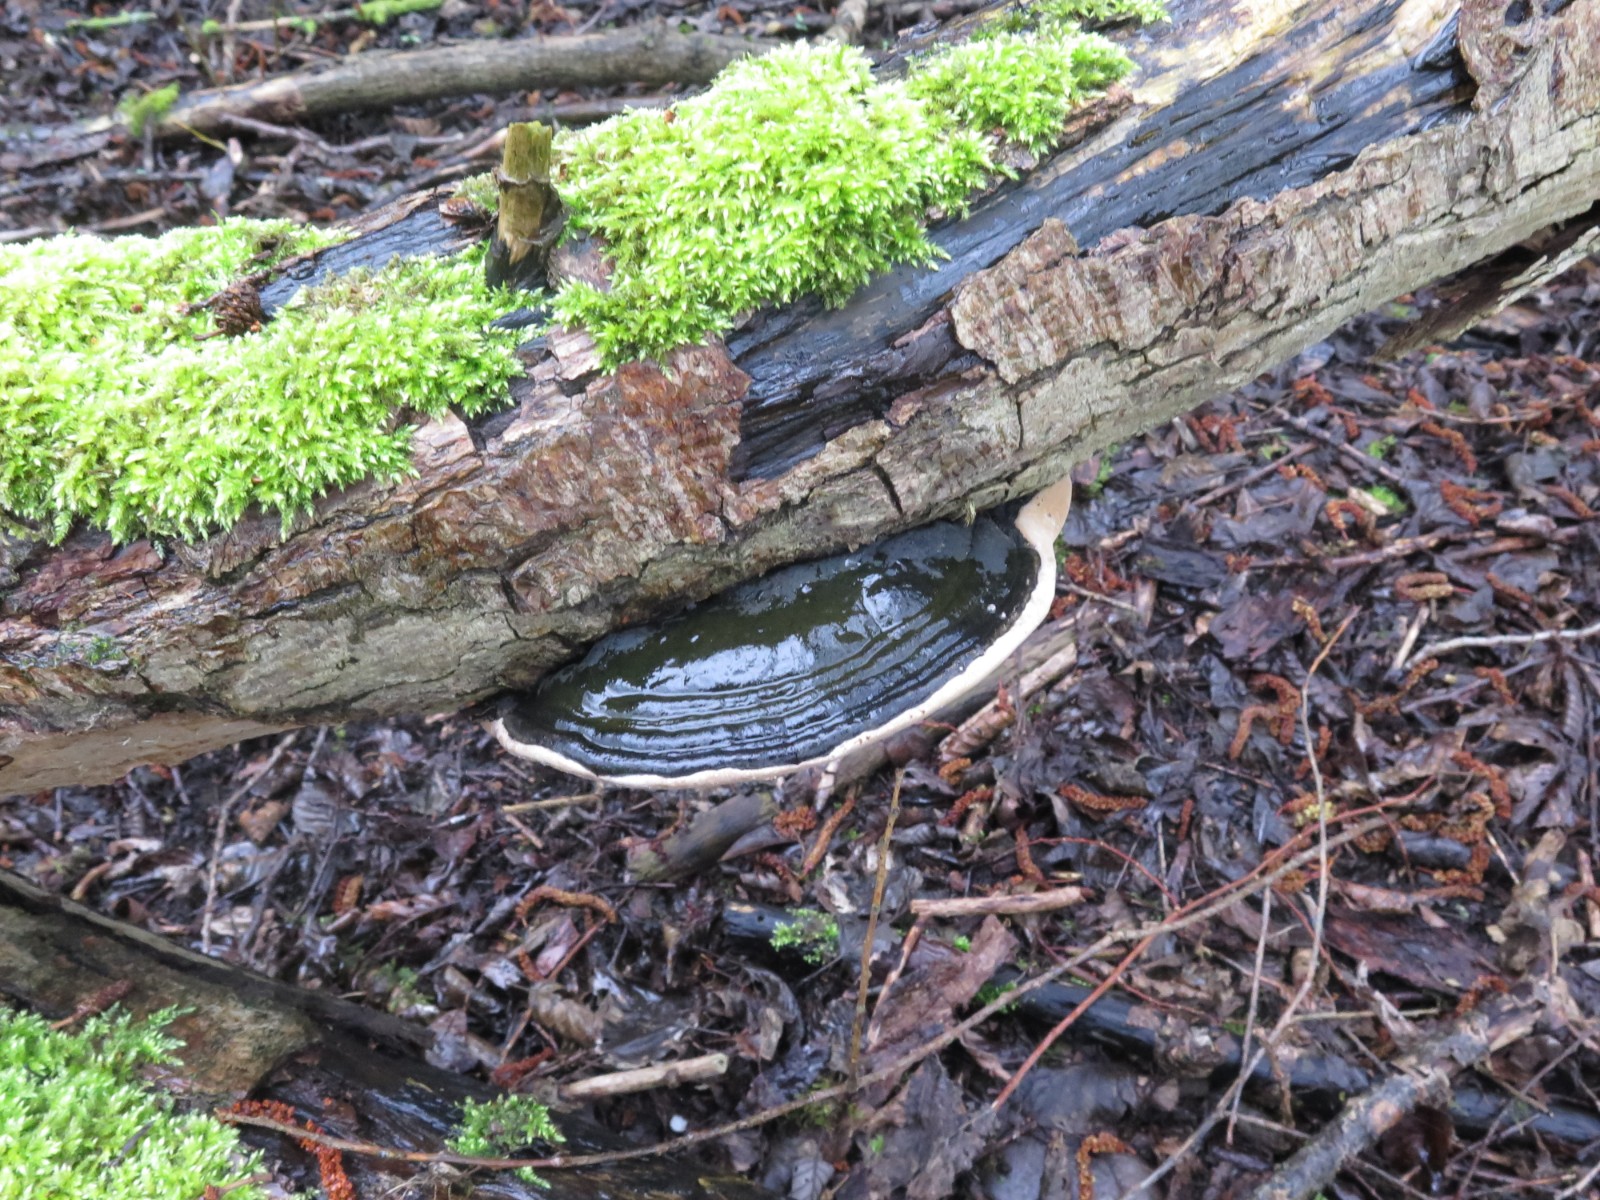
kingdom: Fungi
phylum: Basidiomycota
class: Agaricomycetes
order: Hymenochaetales
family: Hymenochaetaceae
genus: Phellinus
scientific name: Phellinus igniarius
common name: almindelig ildporesvamp
